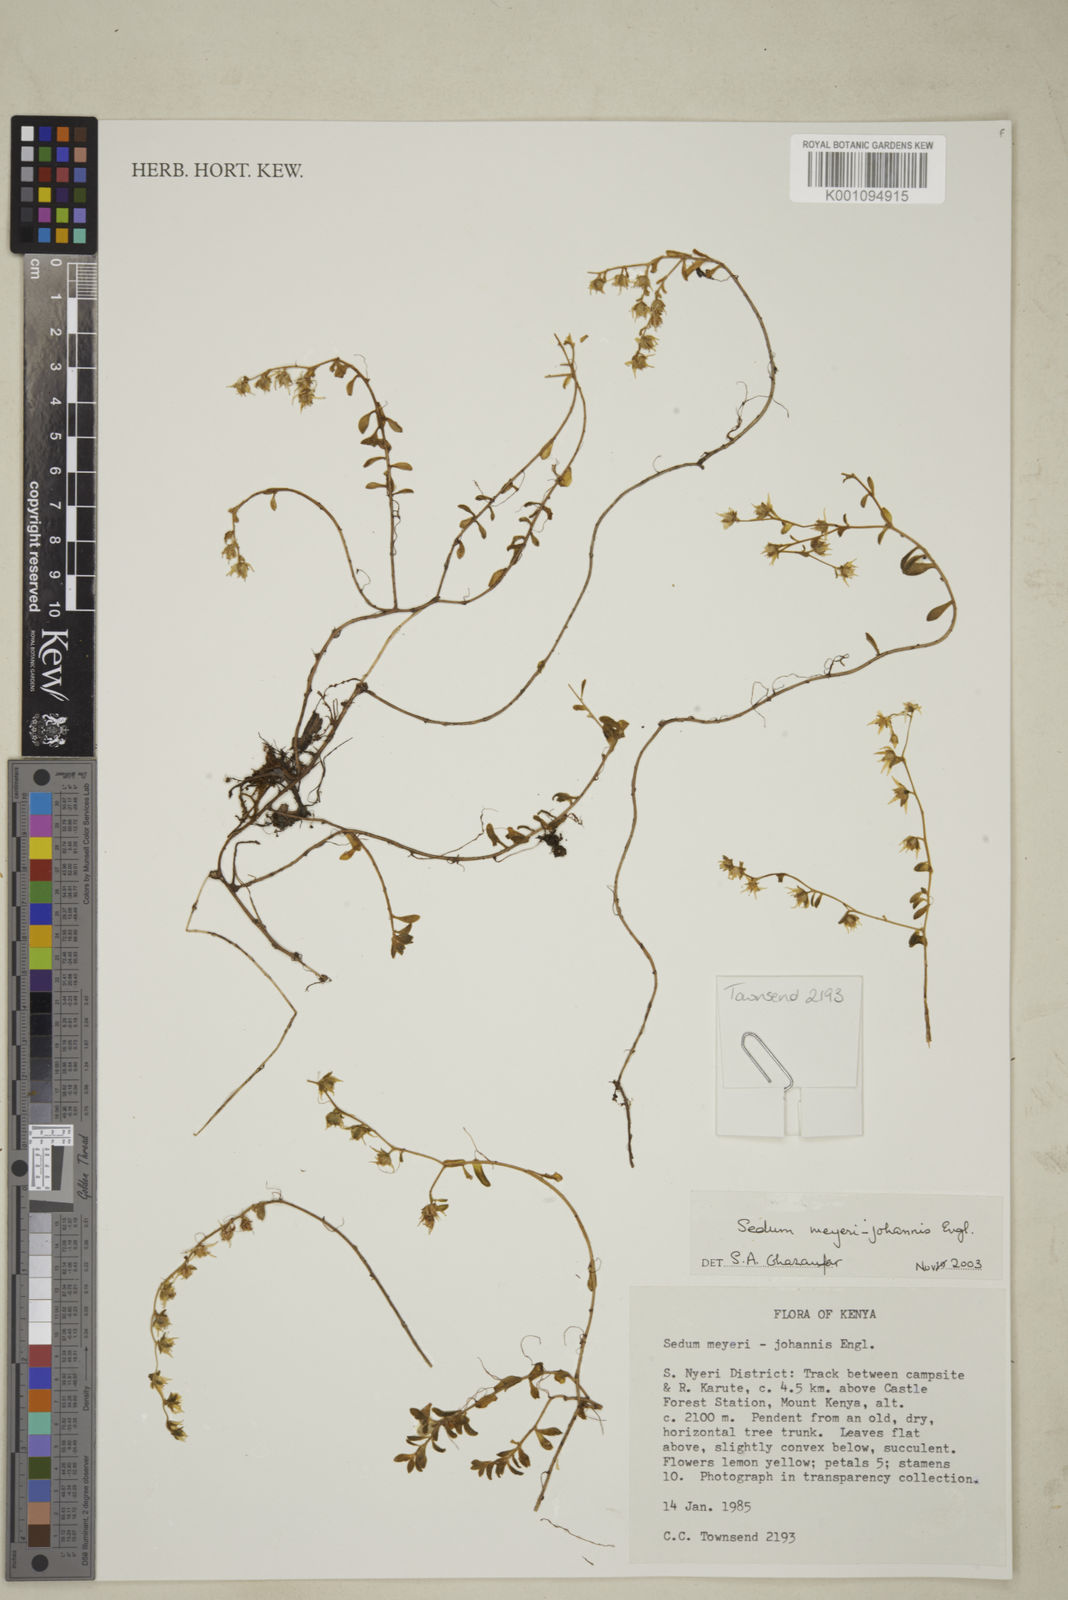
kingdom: Plantae
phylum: Tracheophyta
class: Magnoliopsida
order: Saxifragales
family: Crassulaceae
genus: Sedum
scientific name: Sedum meyeri-johannis
